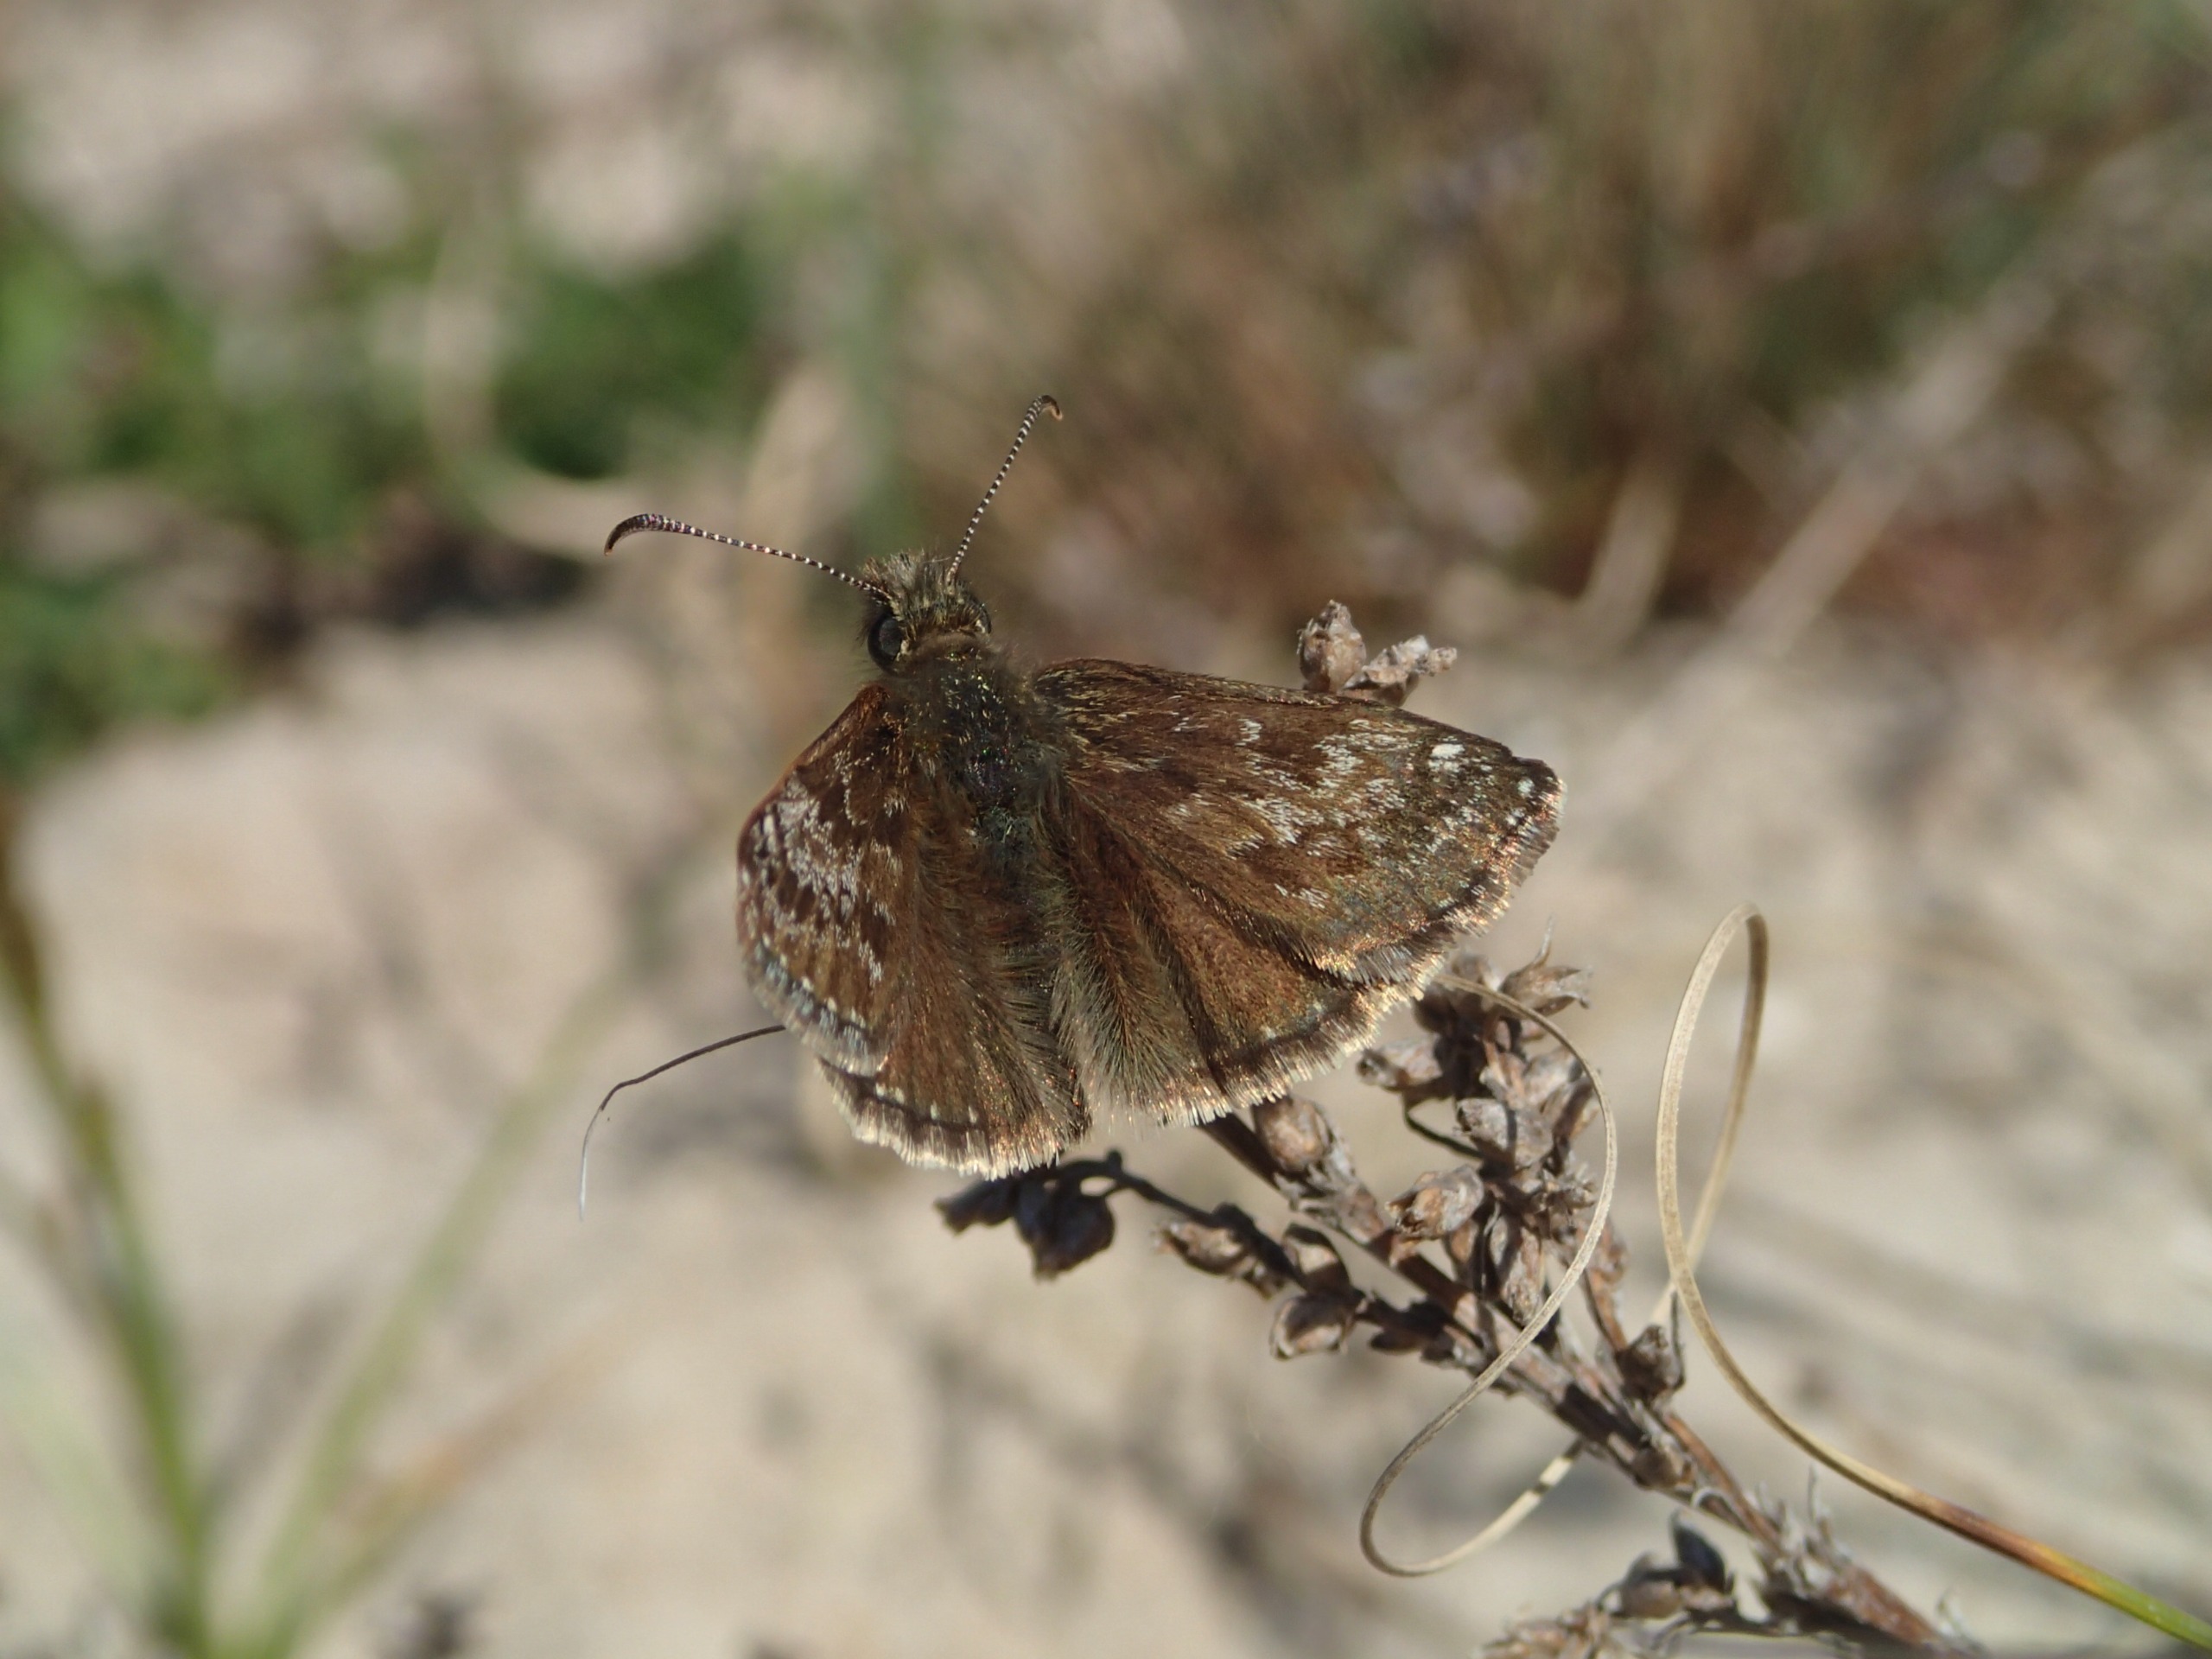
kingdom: Animalia
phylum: Arthropoda
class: Insecta
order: Lepidoptera
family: Hesperiidae
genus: Erynnis
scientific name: Erynnis tages
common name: Gråbåndet bredpande
